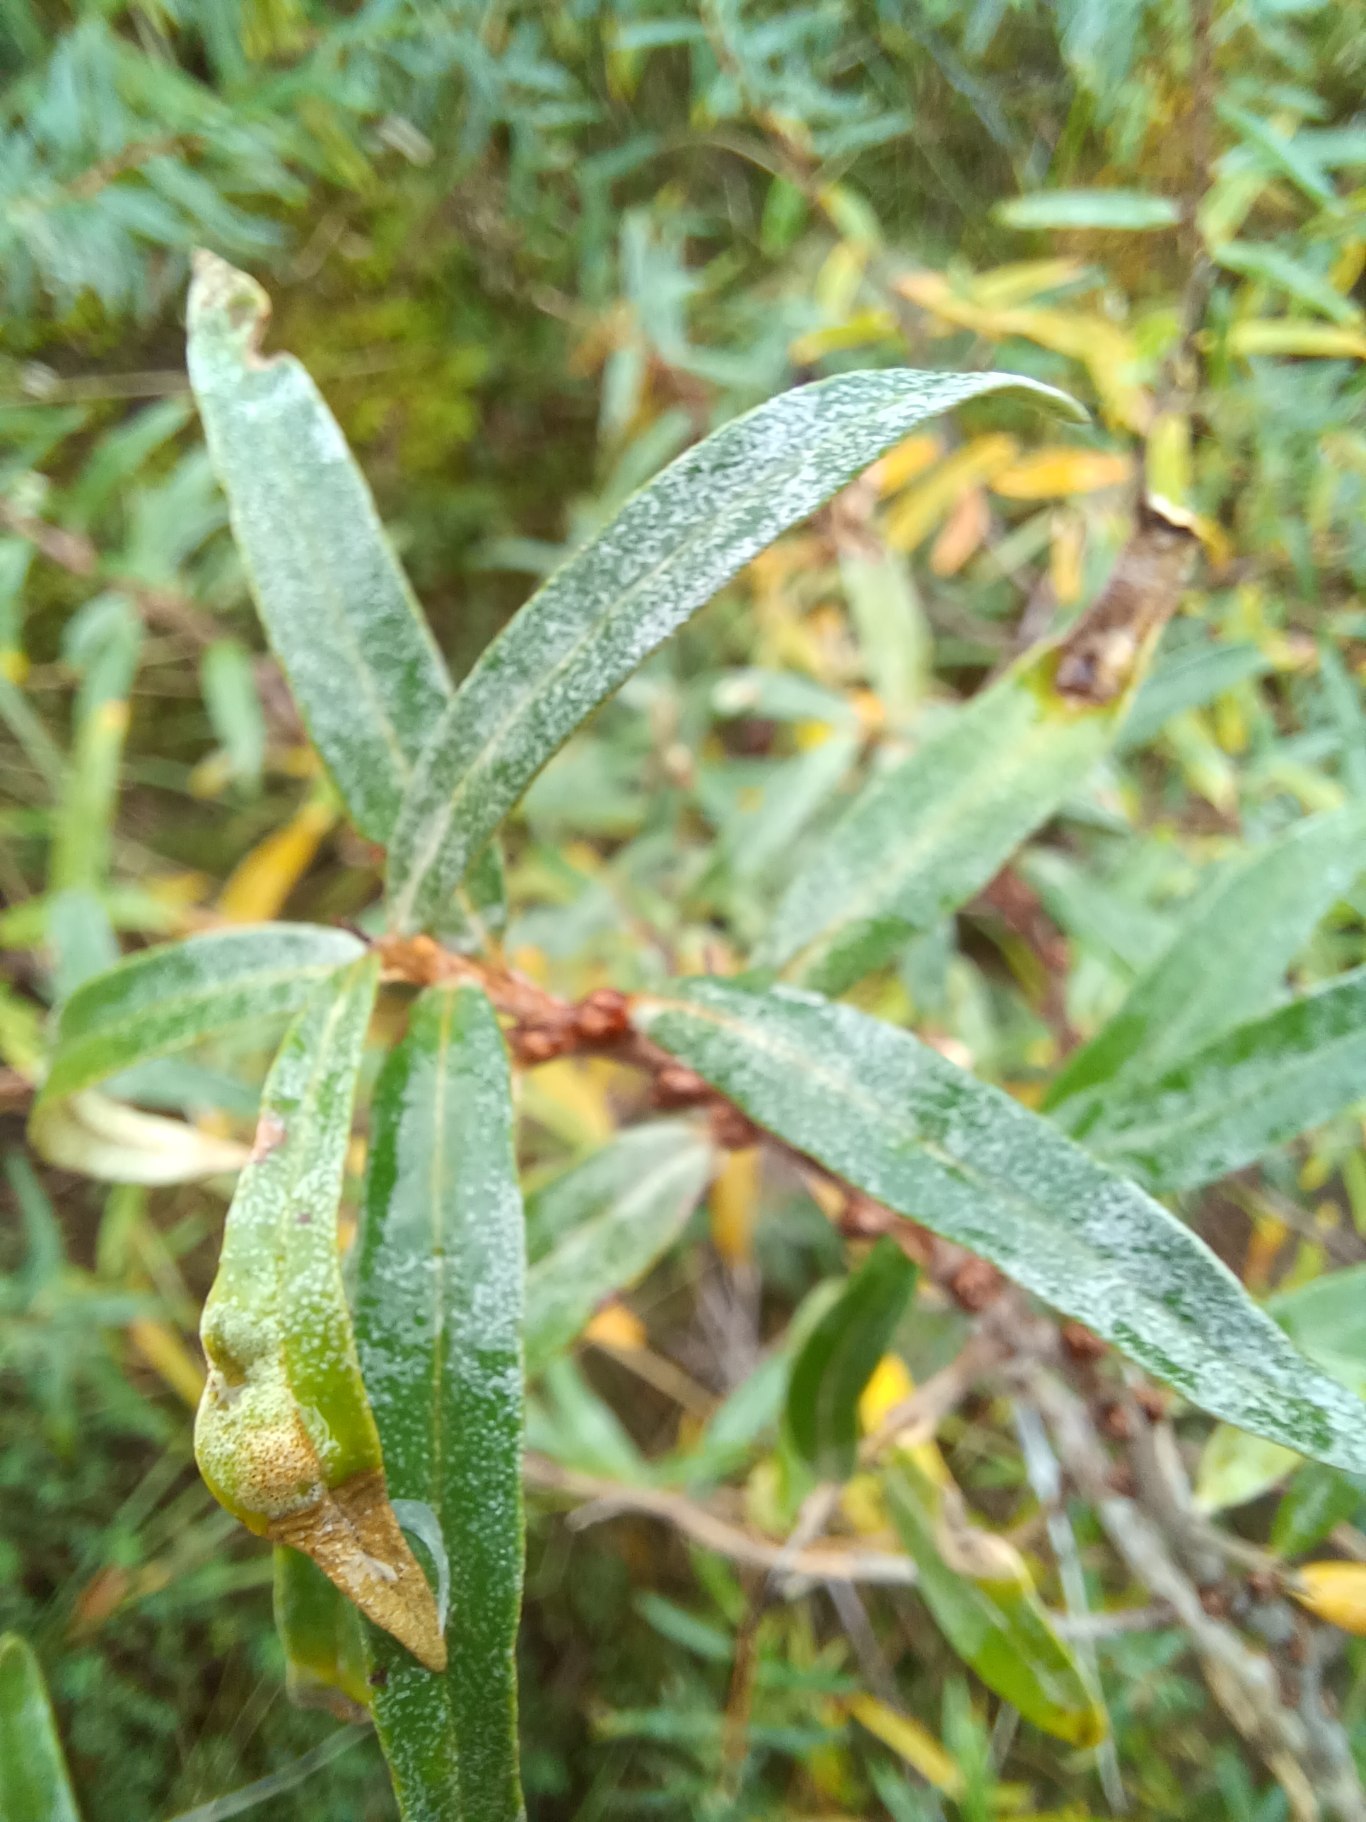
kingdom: Plantae
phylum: Tracheophyta
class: Magnoliopsida
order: Rosales
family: Elaeagnaceae
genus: Hippophae
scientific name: Hippophae rhamnoides
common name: Havtorn
